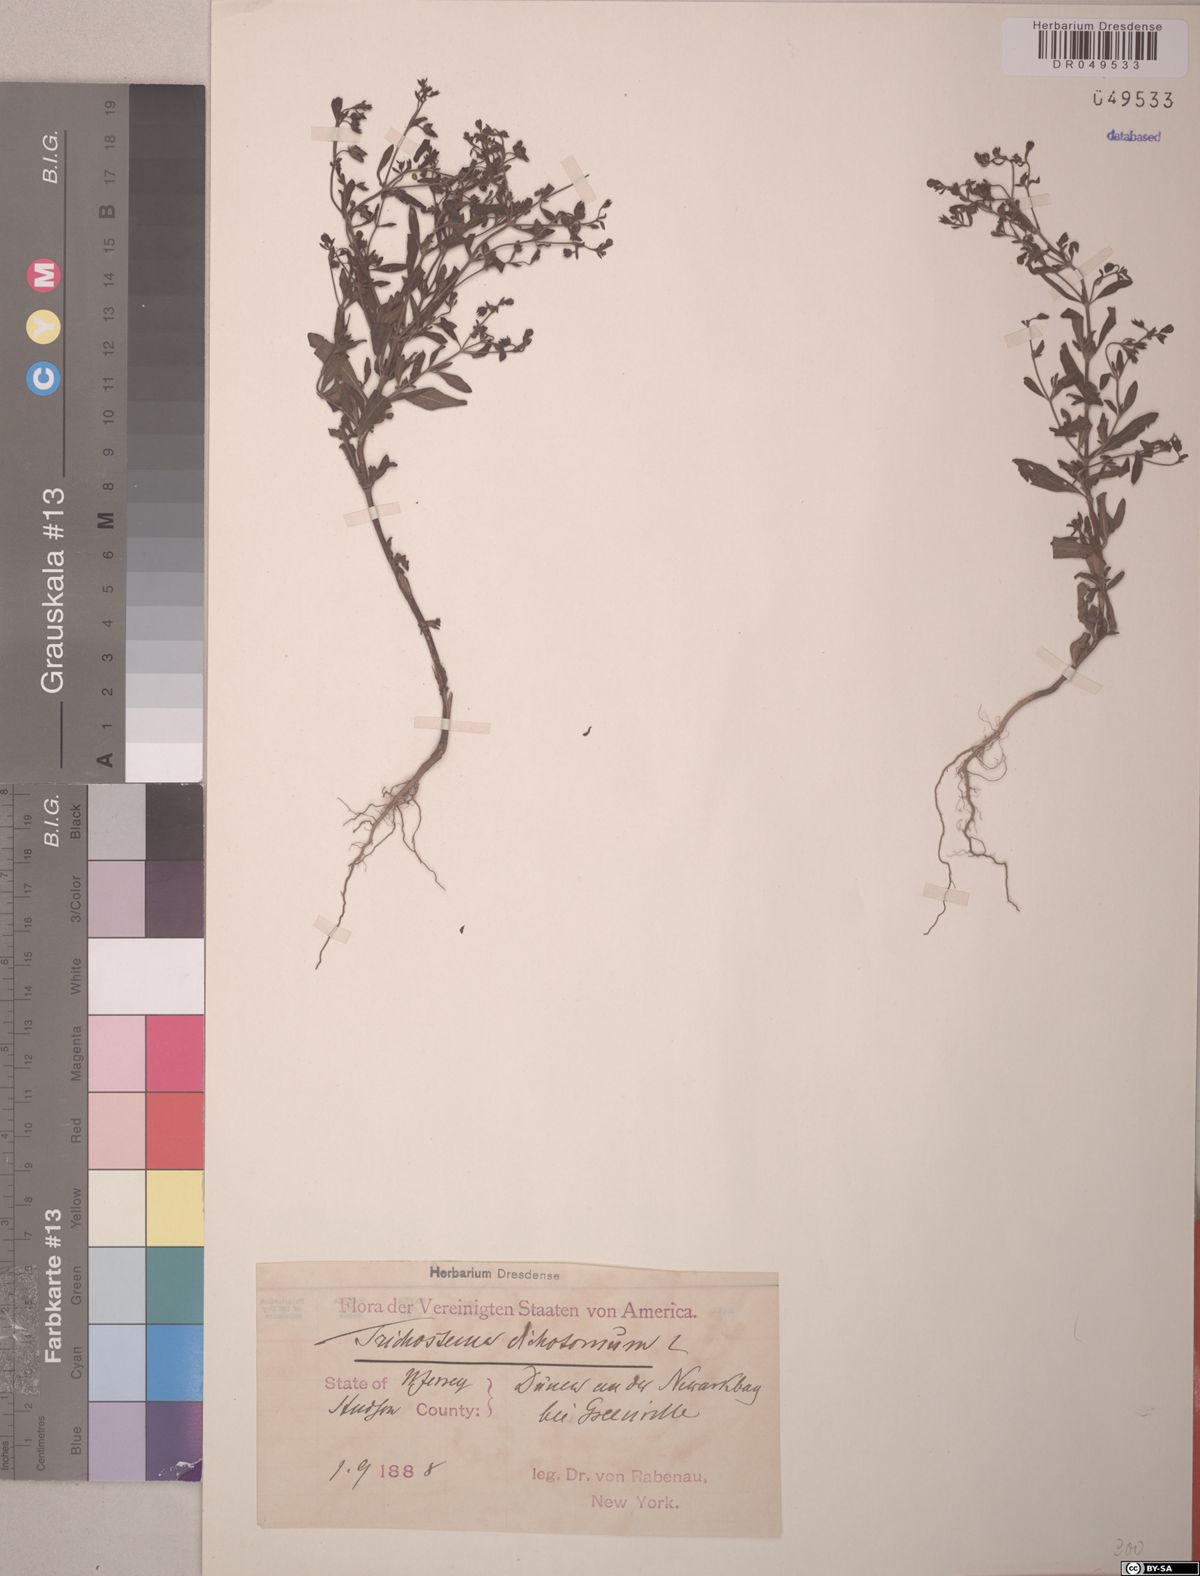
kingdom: Plantae
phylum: Tracheophyta
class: Magnoliopsida
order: Lamiales
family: Lamiaceae
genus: Trichostema
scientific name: Trichostema dichotomum
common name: Bastard pennyroyal
